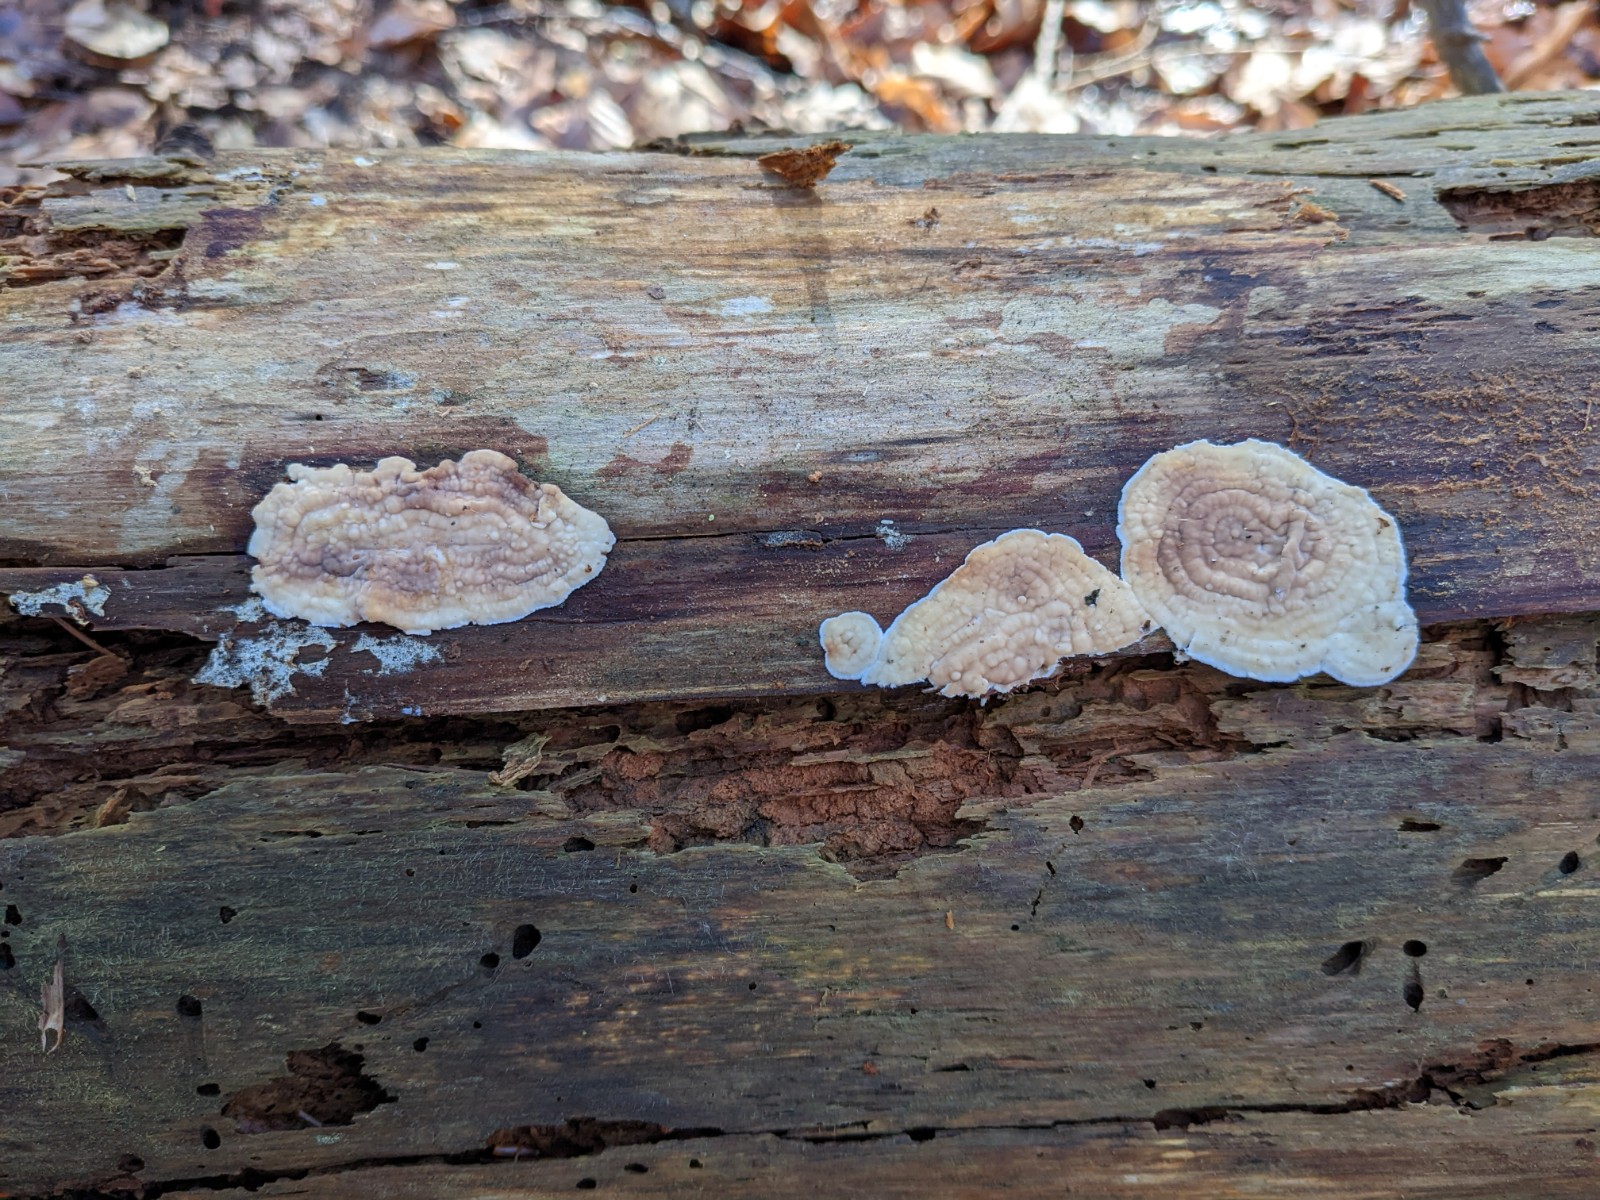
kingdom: Fungi
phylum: Basidiomycota
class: Agaricomycetes
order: Polyporales
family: Dacryobolaceae
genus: Dacryobolus
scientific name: Dacryobolus karstenii
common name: glat vulkanskorpe
